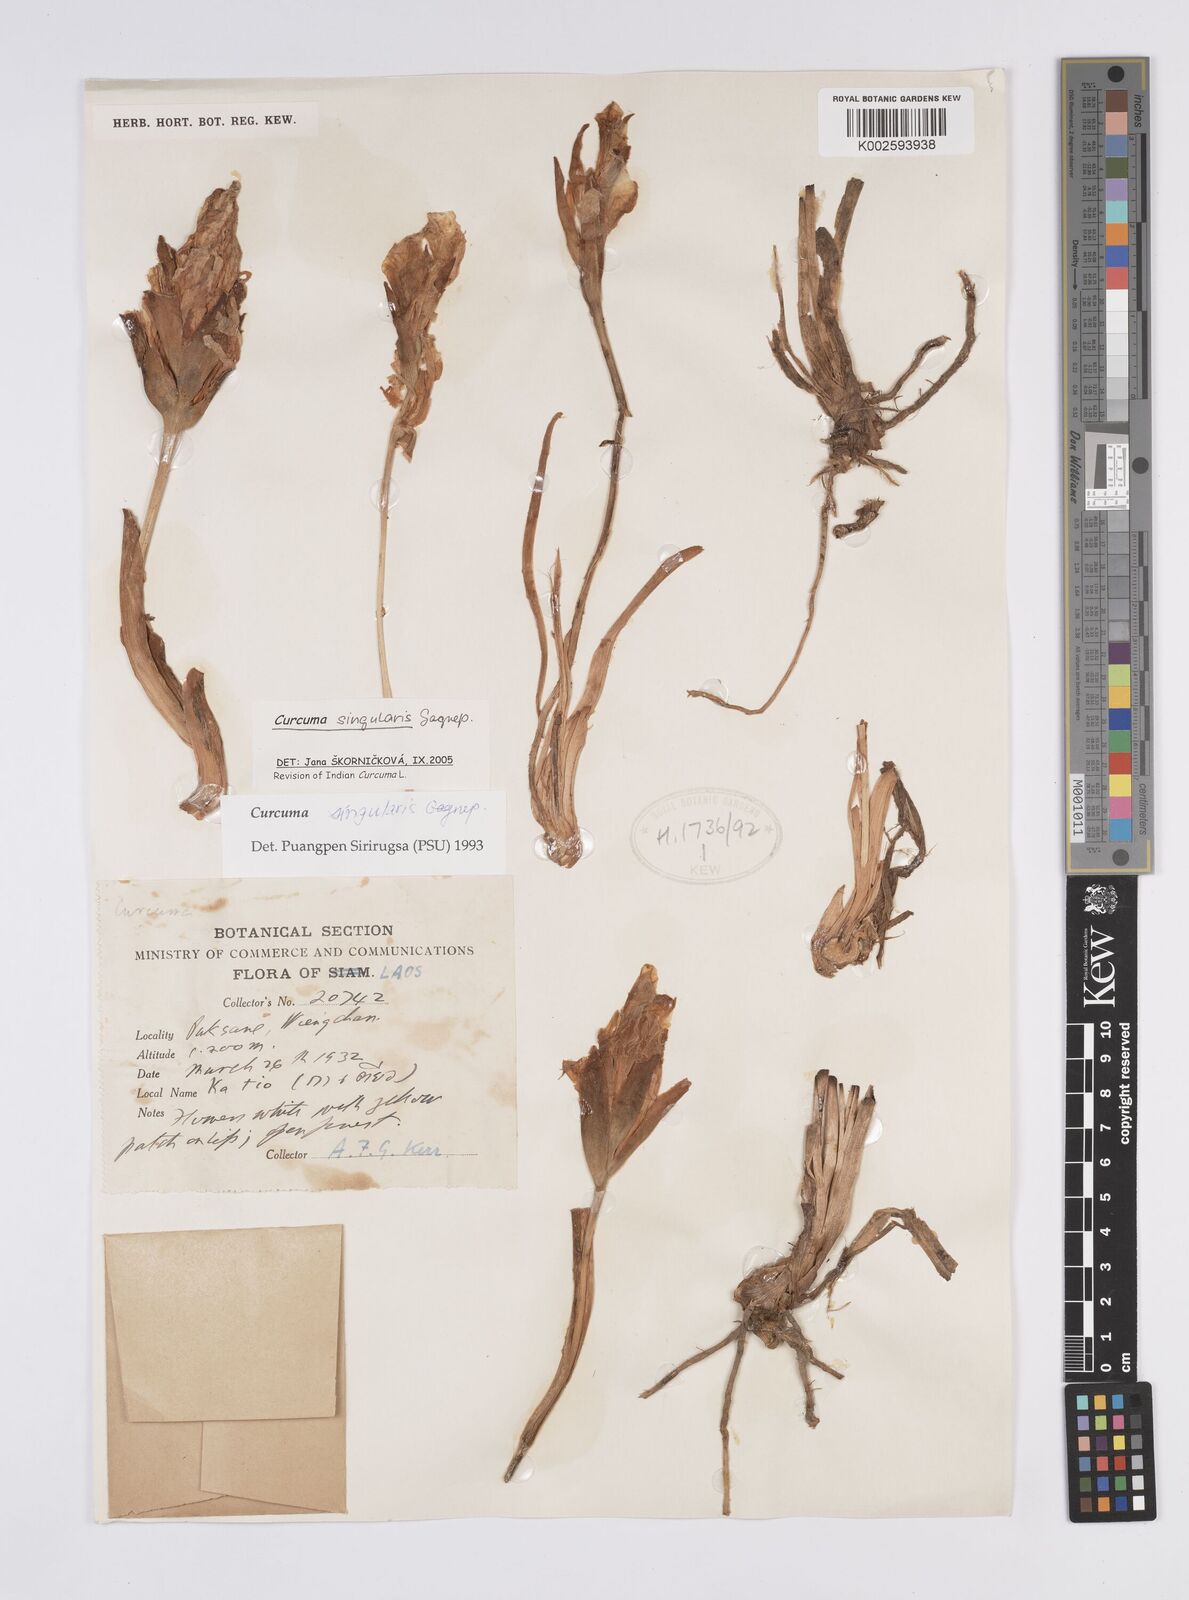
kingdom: Plantae
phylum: Tracheophyta
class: Liliopsida
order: Zingiberales
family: Zingiberaceae
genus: Curcuma
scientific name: Curcuma singularis
